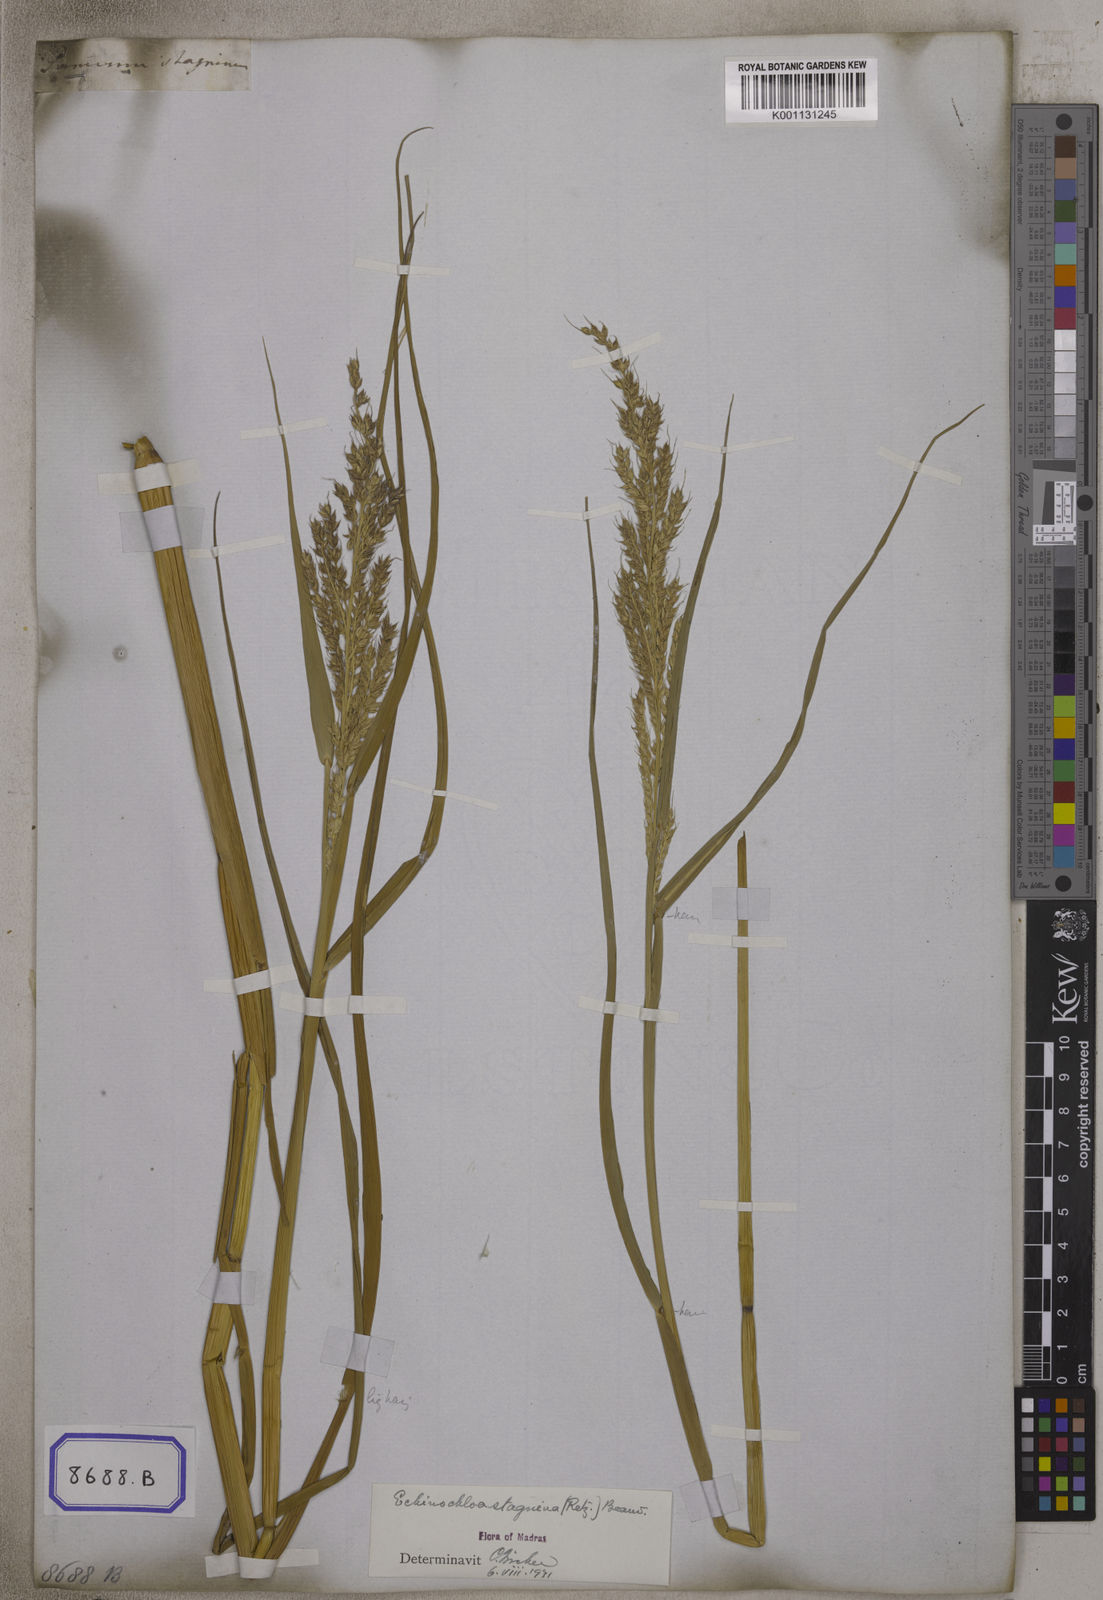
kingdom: Plantae
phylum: Tracheophyta
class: Liliopsida
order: Poales
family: Poaceae
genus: Echinochloa
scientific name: Echinochloa stagnina
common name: Burgu grass
